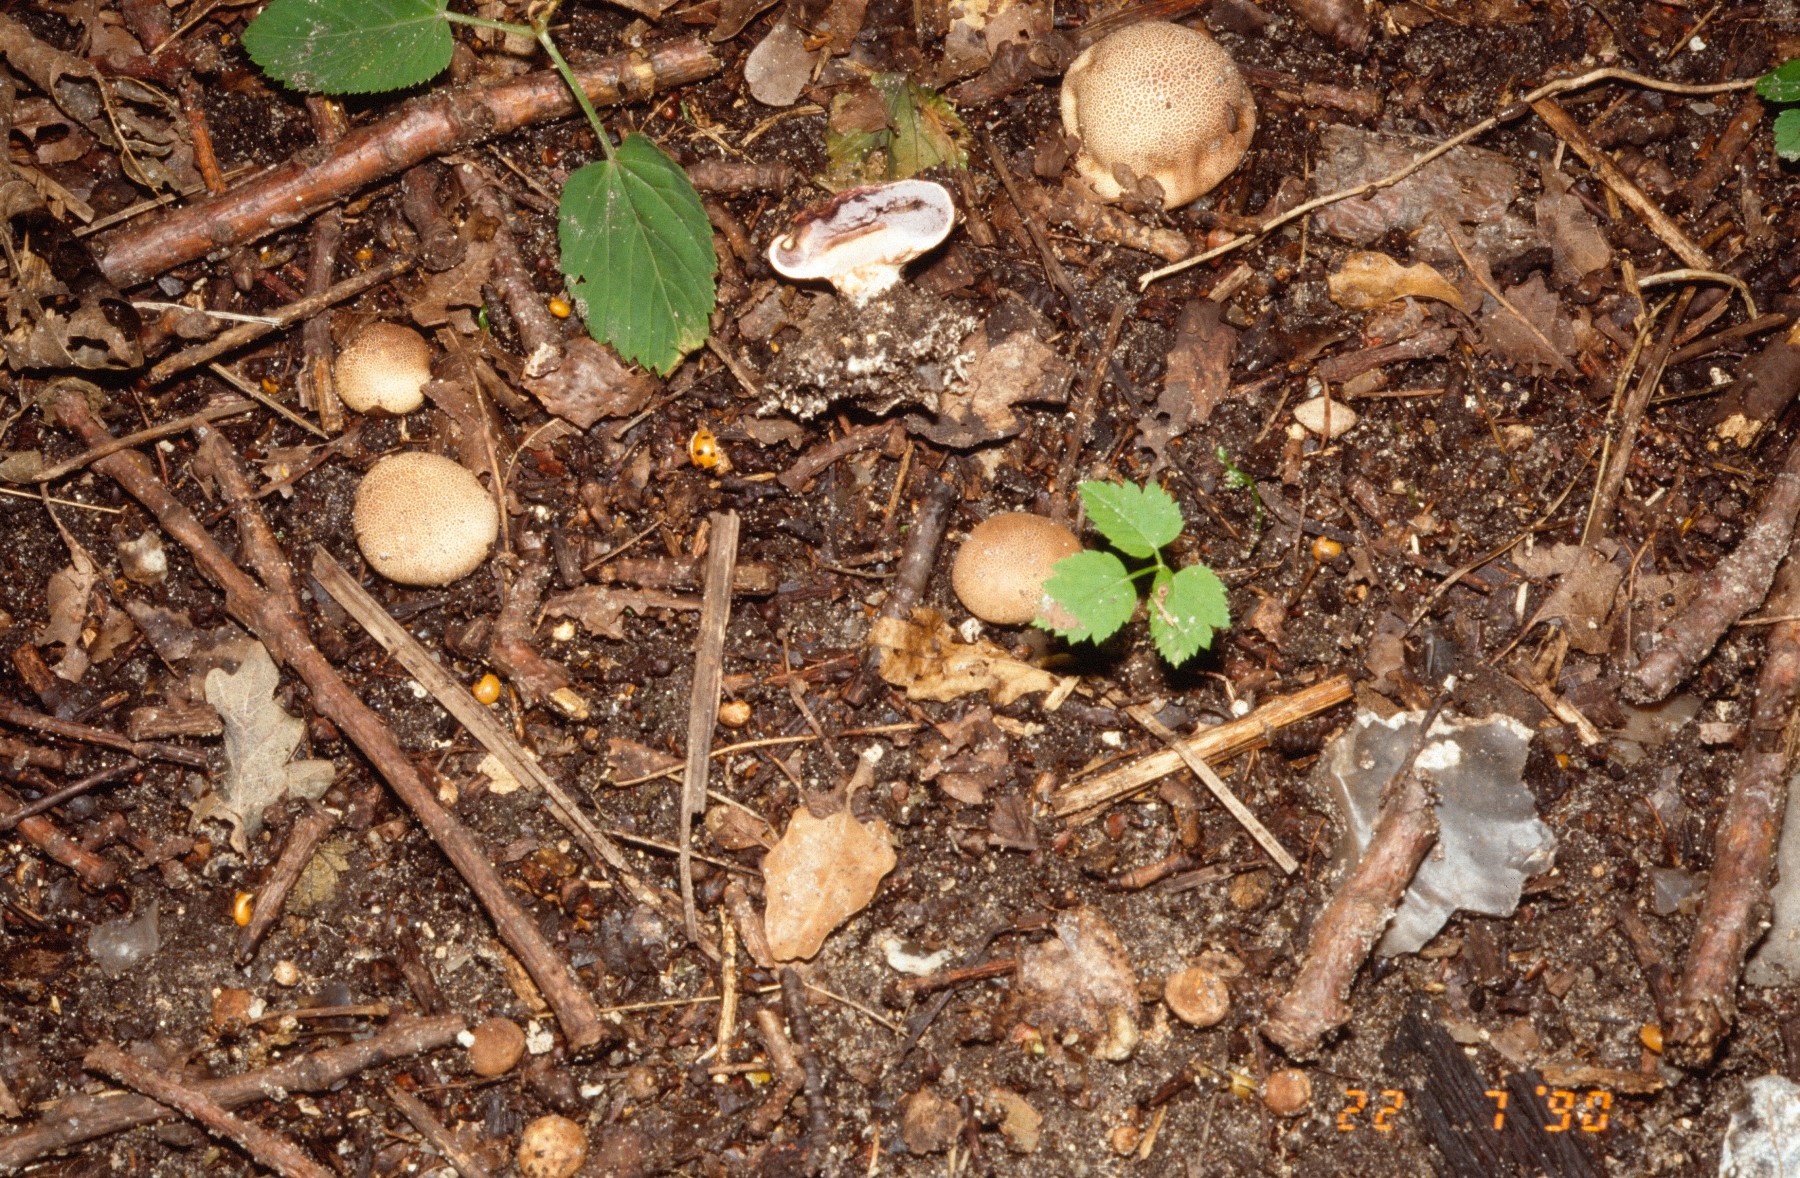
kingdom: Fungi
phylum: Basidiomycota
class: Agaricomycetes
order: Boletales
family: Sclerodermataceae
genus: Scleroderma
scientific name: Scleroderma verrucosum
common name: stilket bruskbold
